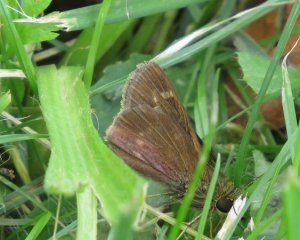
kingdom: Animalia
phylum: Arthropoda
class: Insecta
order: Lepidoptera
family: Hesperiidae
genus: Vernia
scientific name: Vernia verna
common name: Little Glassywing
